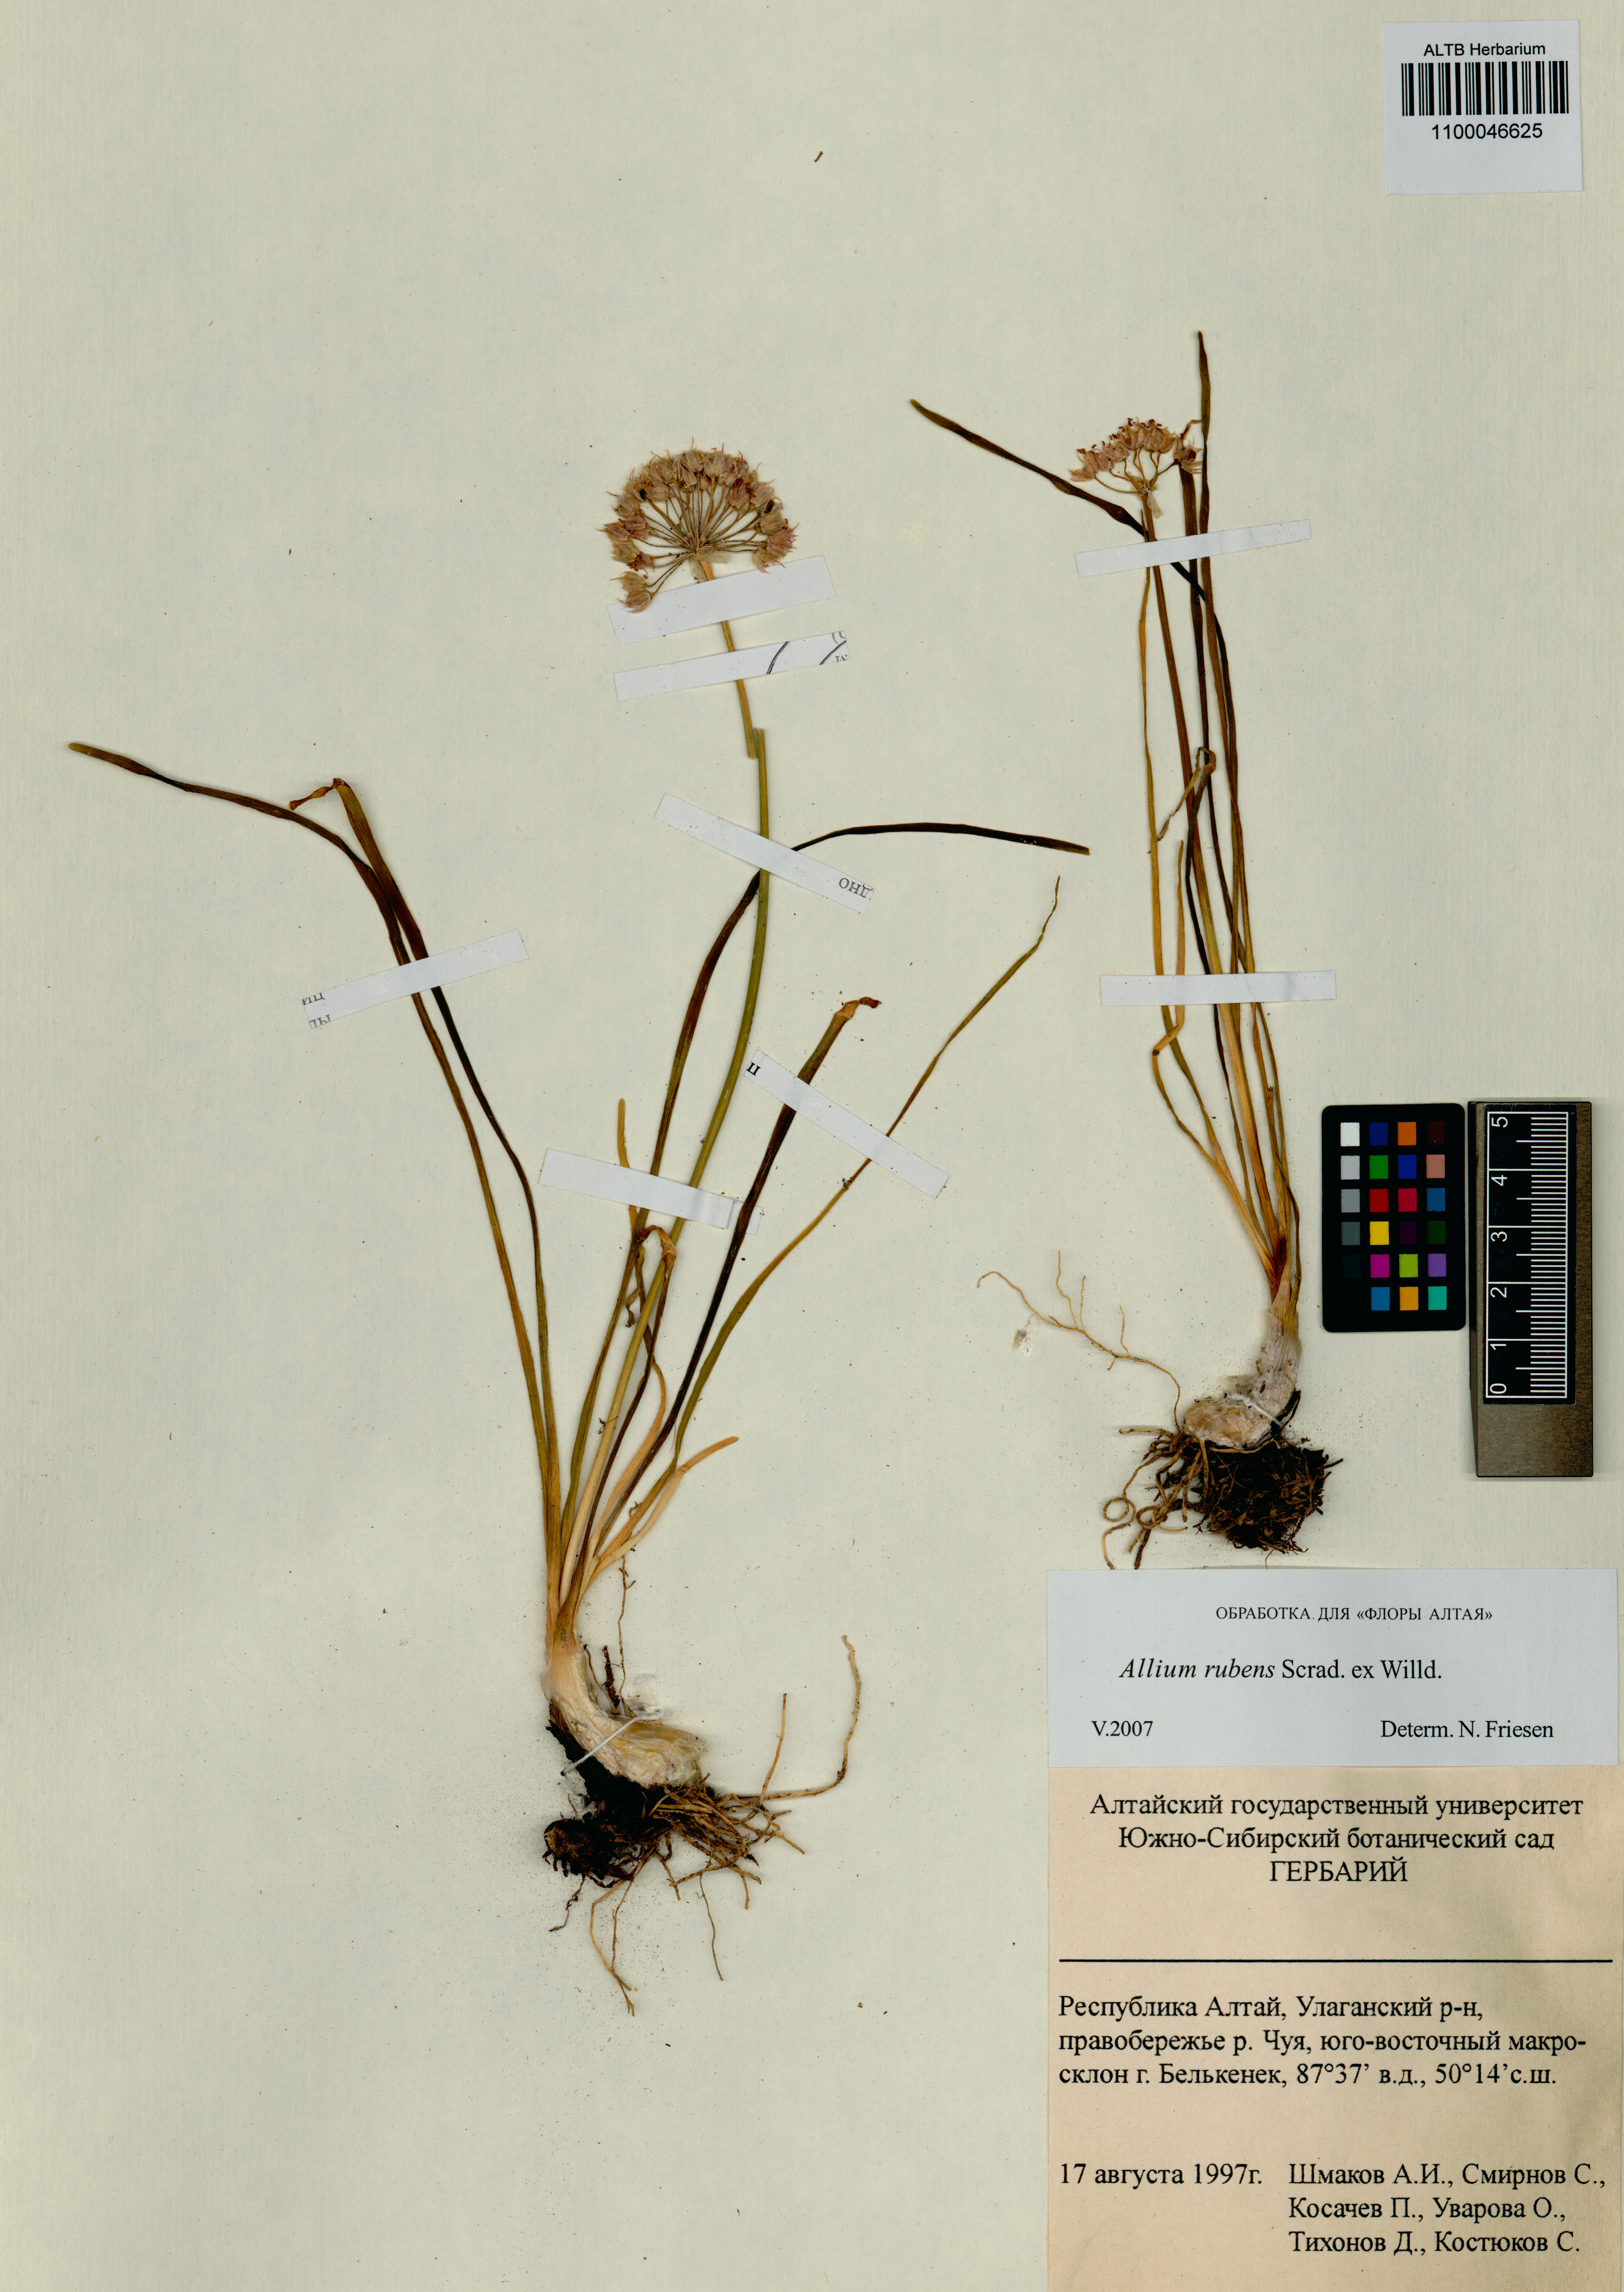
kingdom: Plantae
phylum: Tracheophyta
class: Liliopsida
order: Asparagales
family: Amaryllidaceae
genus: Allium
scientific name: Allium rubens
